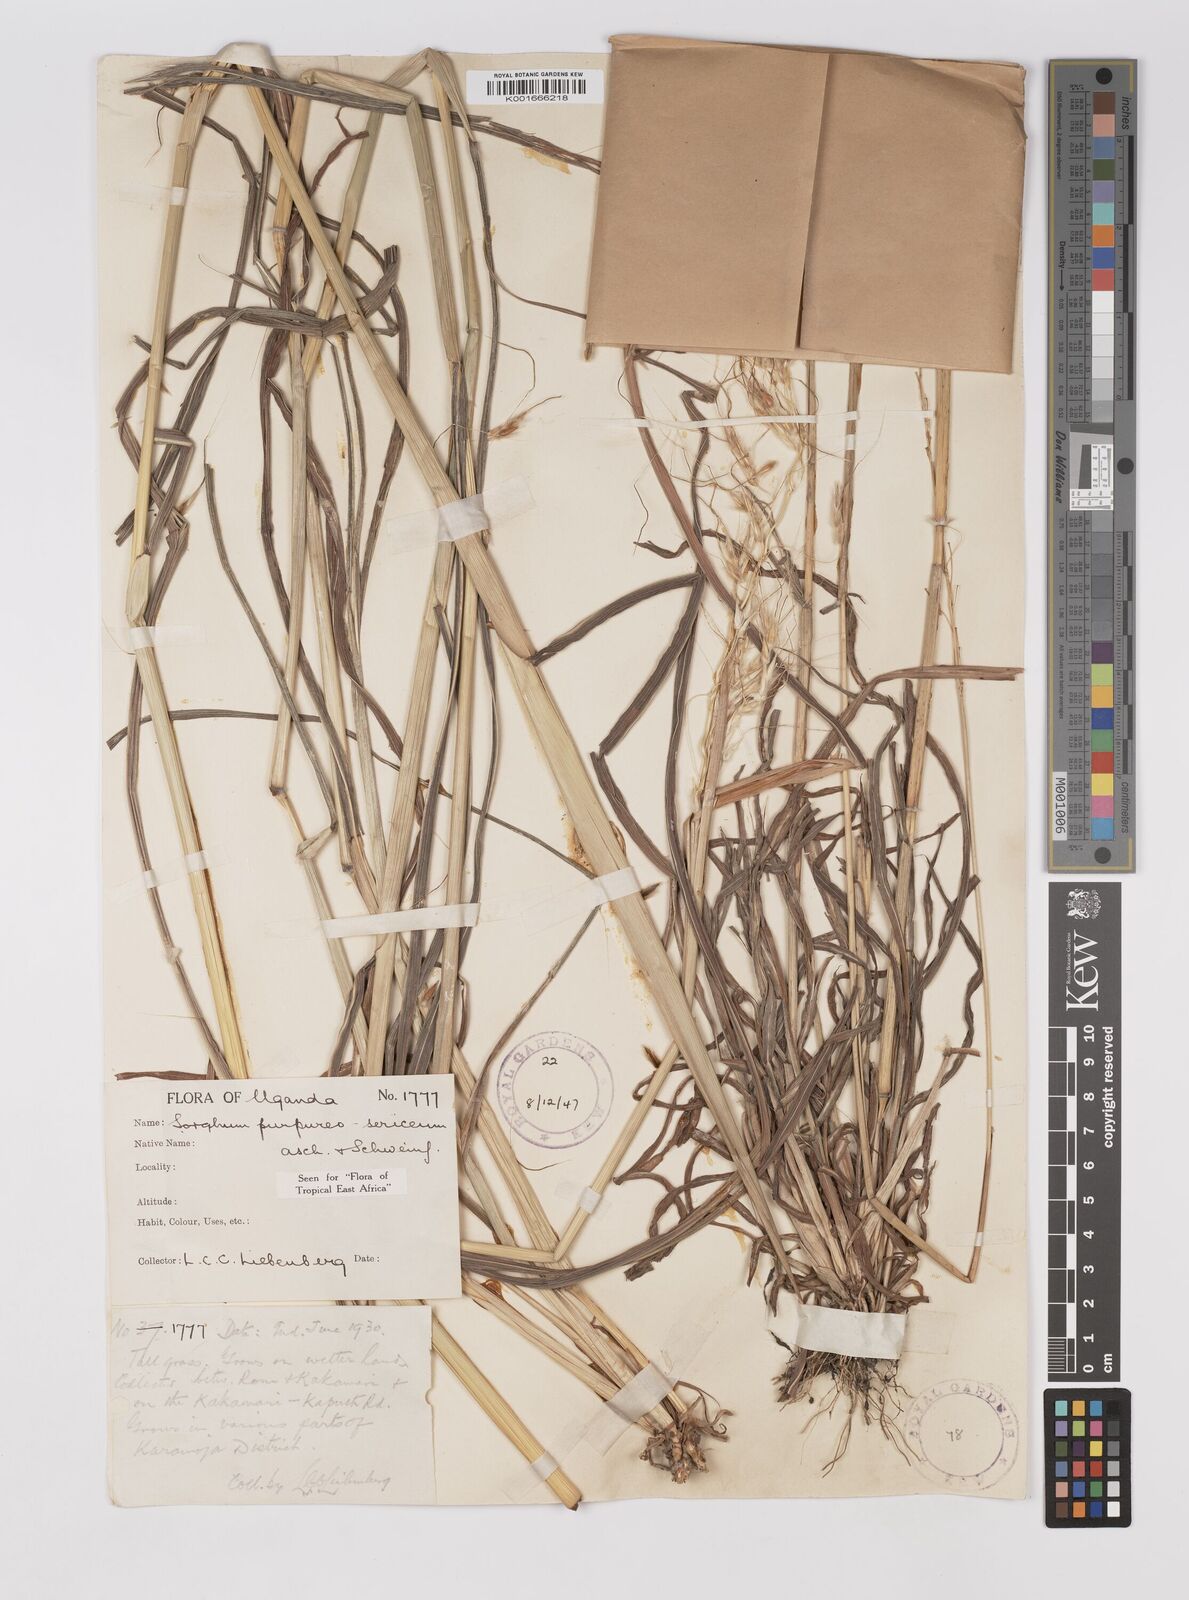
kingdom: Plantae
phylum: Tracheophyta
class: Liliopsida
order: Poales
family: Poaceae
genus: Sarga
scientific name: Sarga purpureosericea
